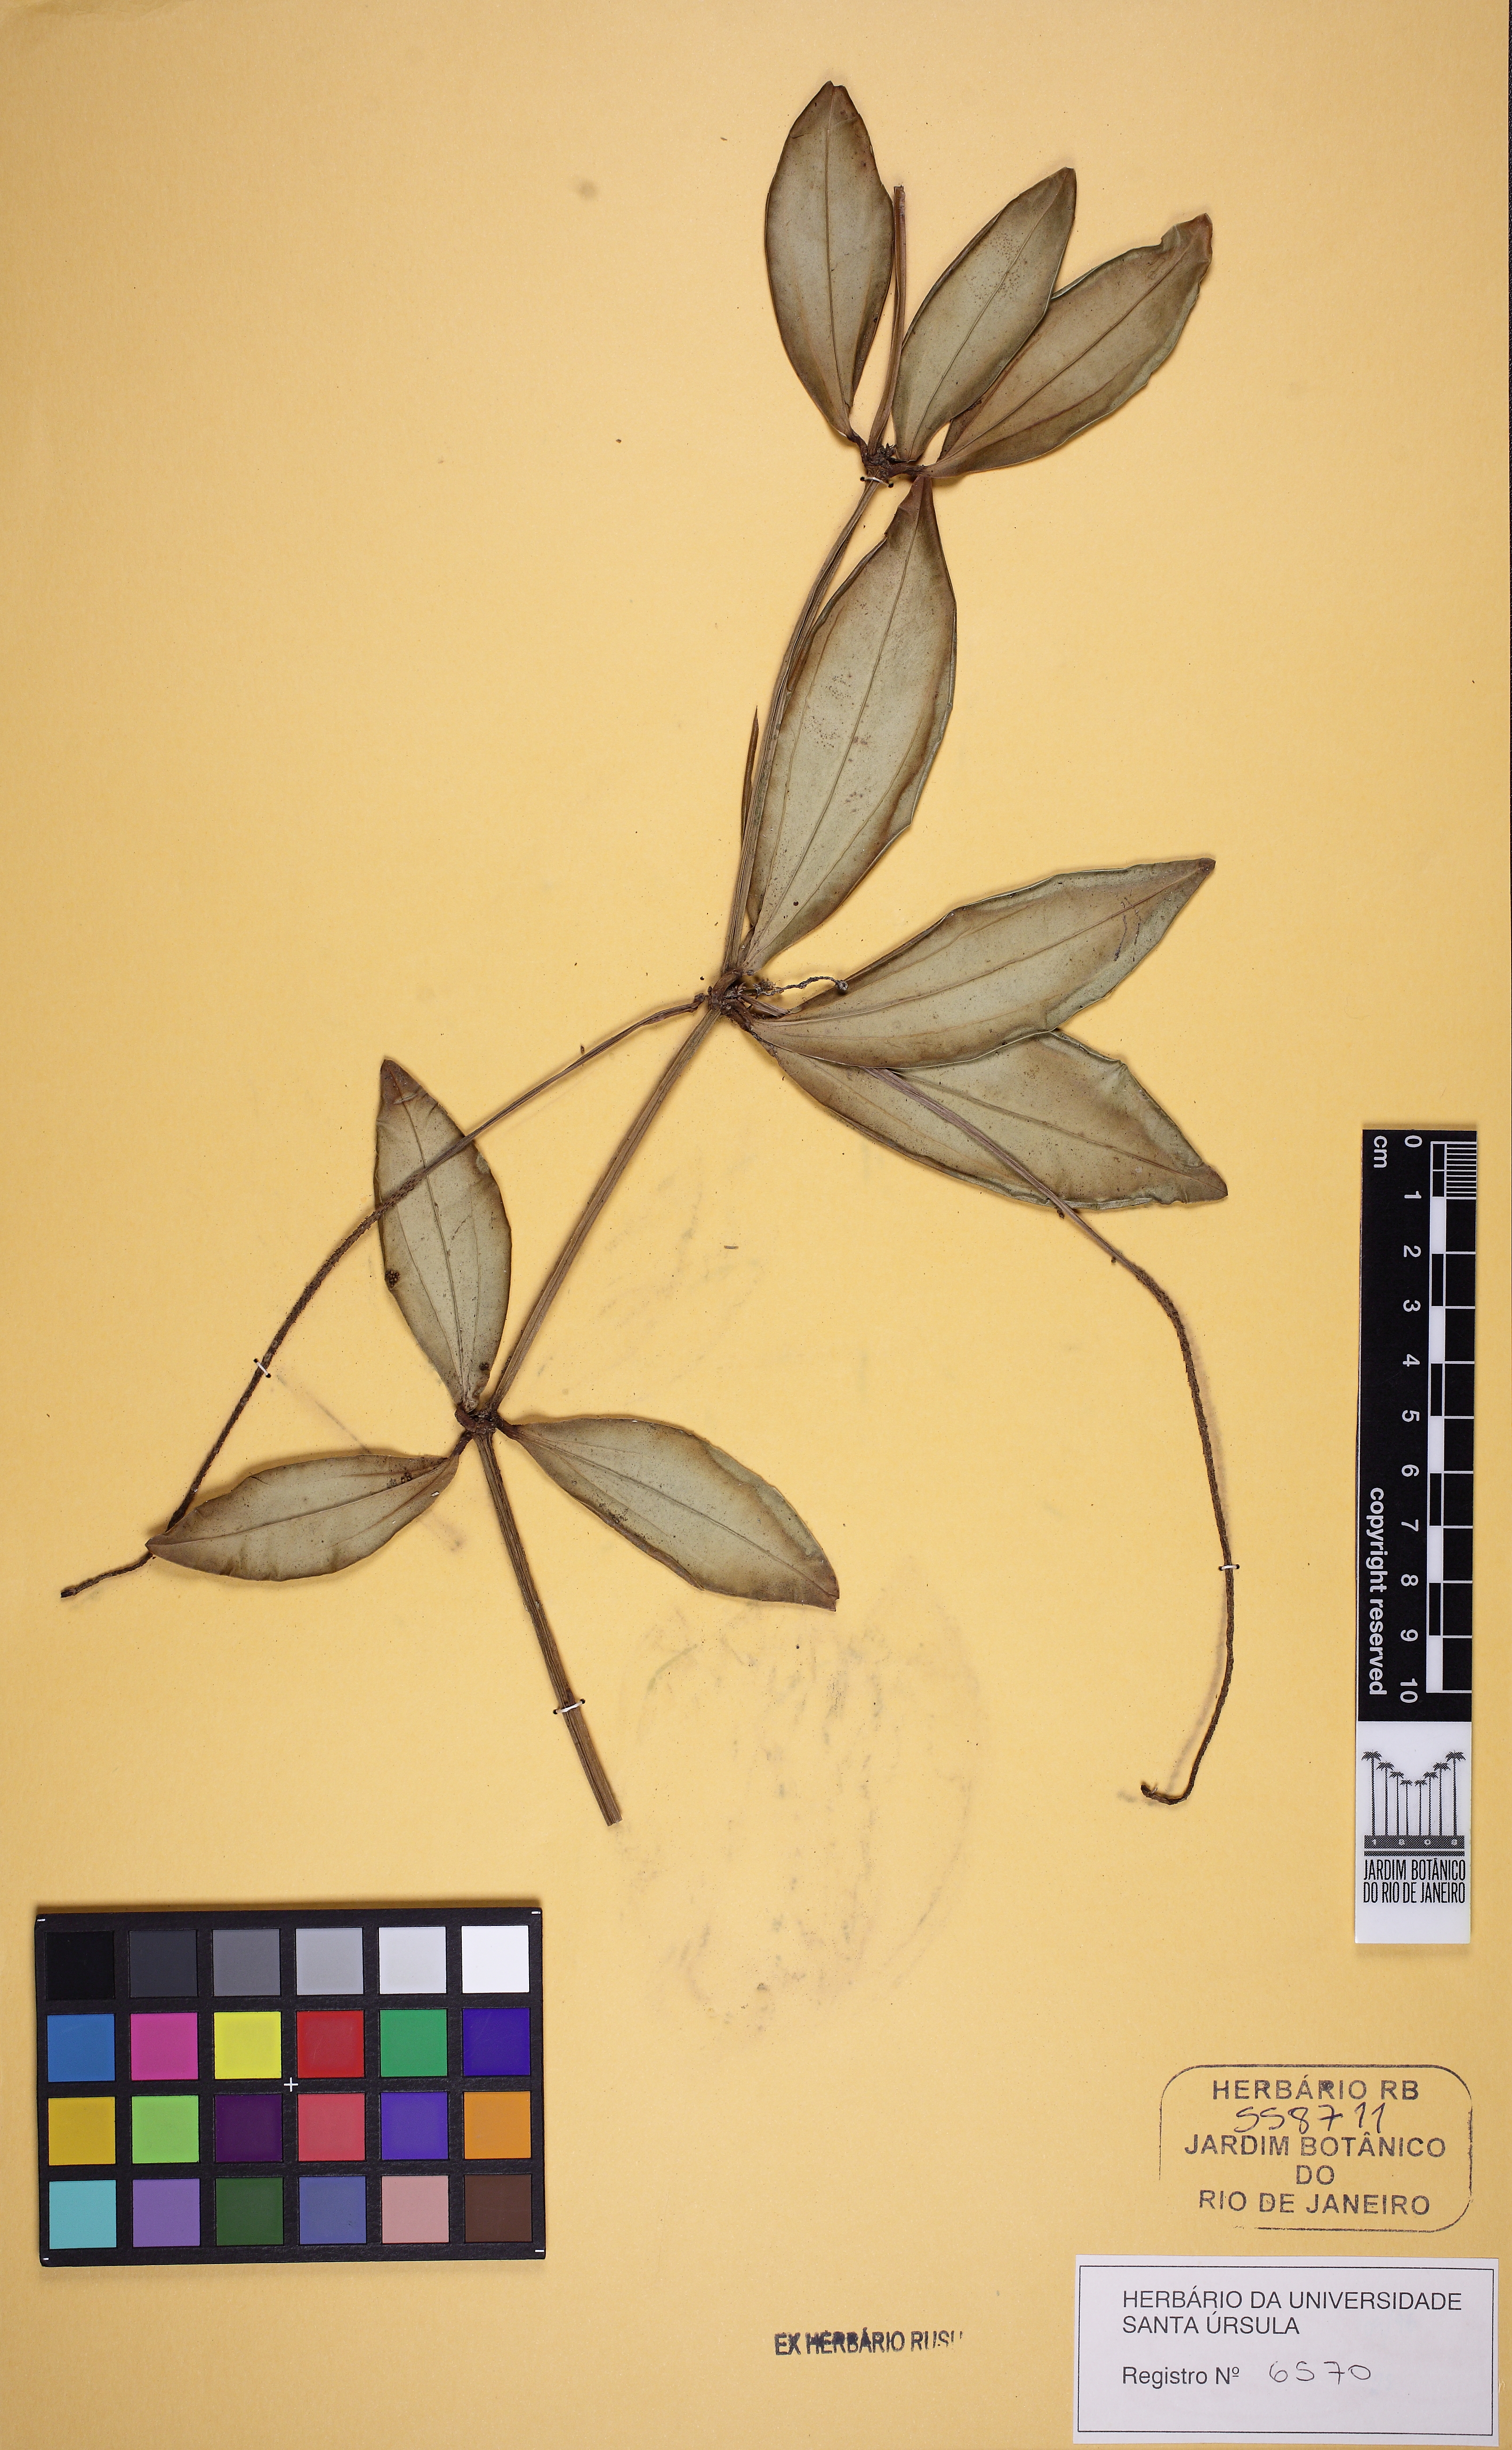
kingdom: Plantae
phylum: Tracheophyta
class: Magnoliopsida
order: Piperales
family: Piperaceae
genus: Peperomia
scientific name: Peperomia rubricaulis
